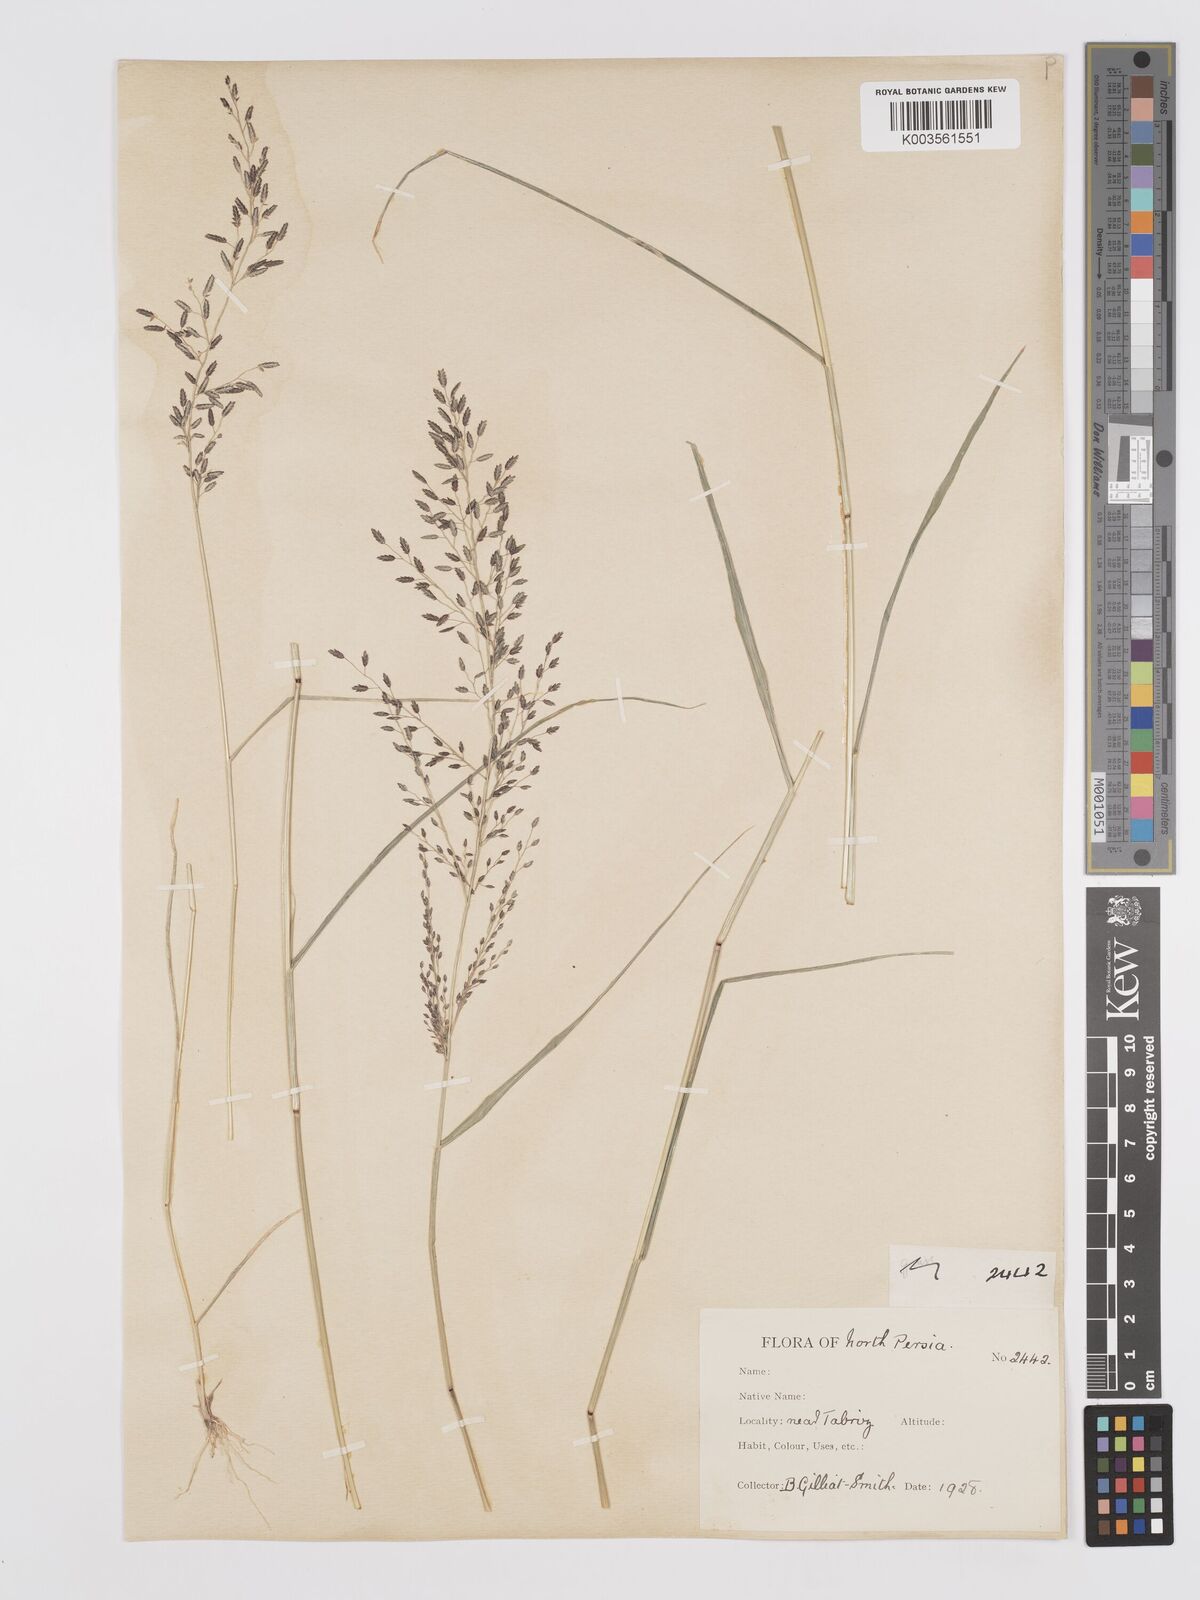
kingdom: Plantae
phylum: Tracheophyta
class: Liliopsida
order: Poales
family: Poaceae
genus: Eragrostis
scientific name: Eragrostis minor
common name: Small love-grass
